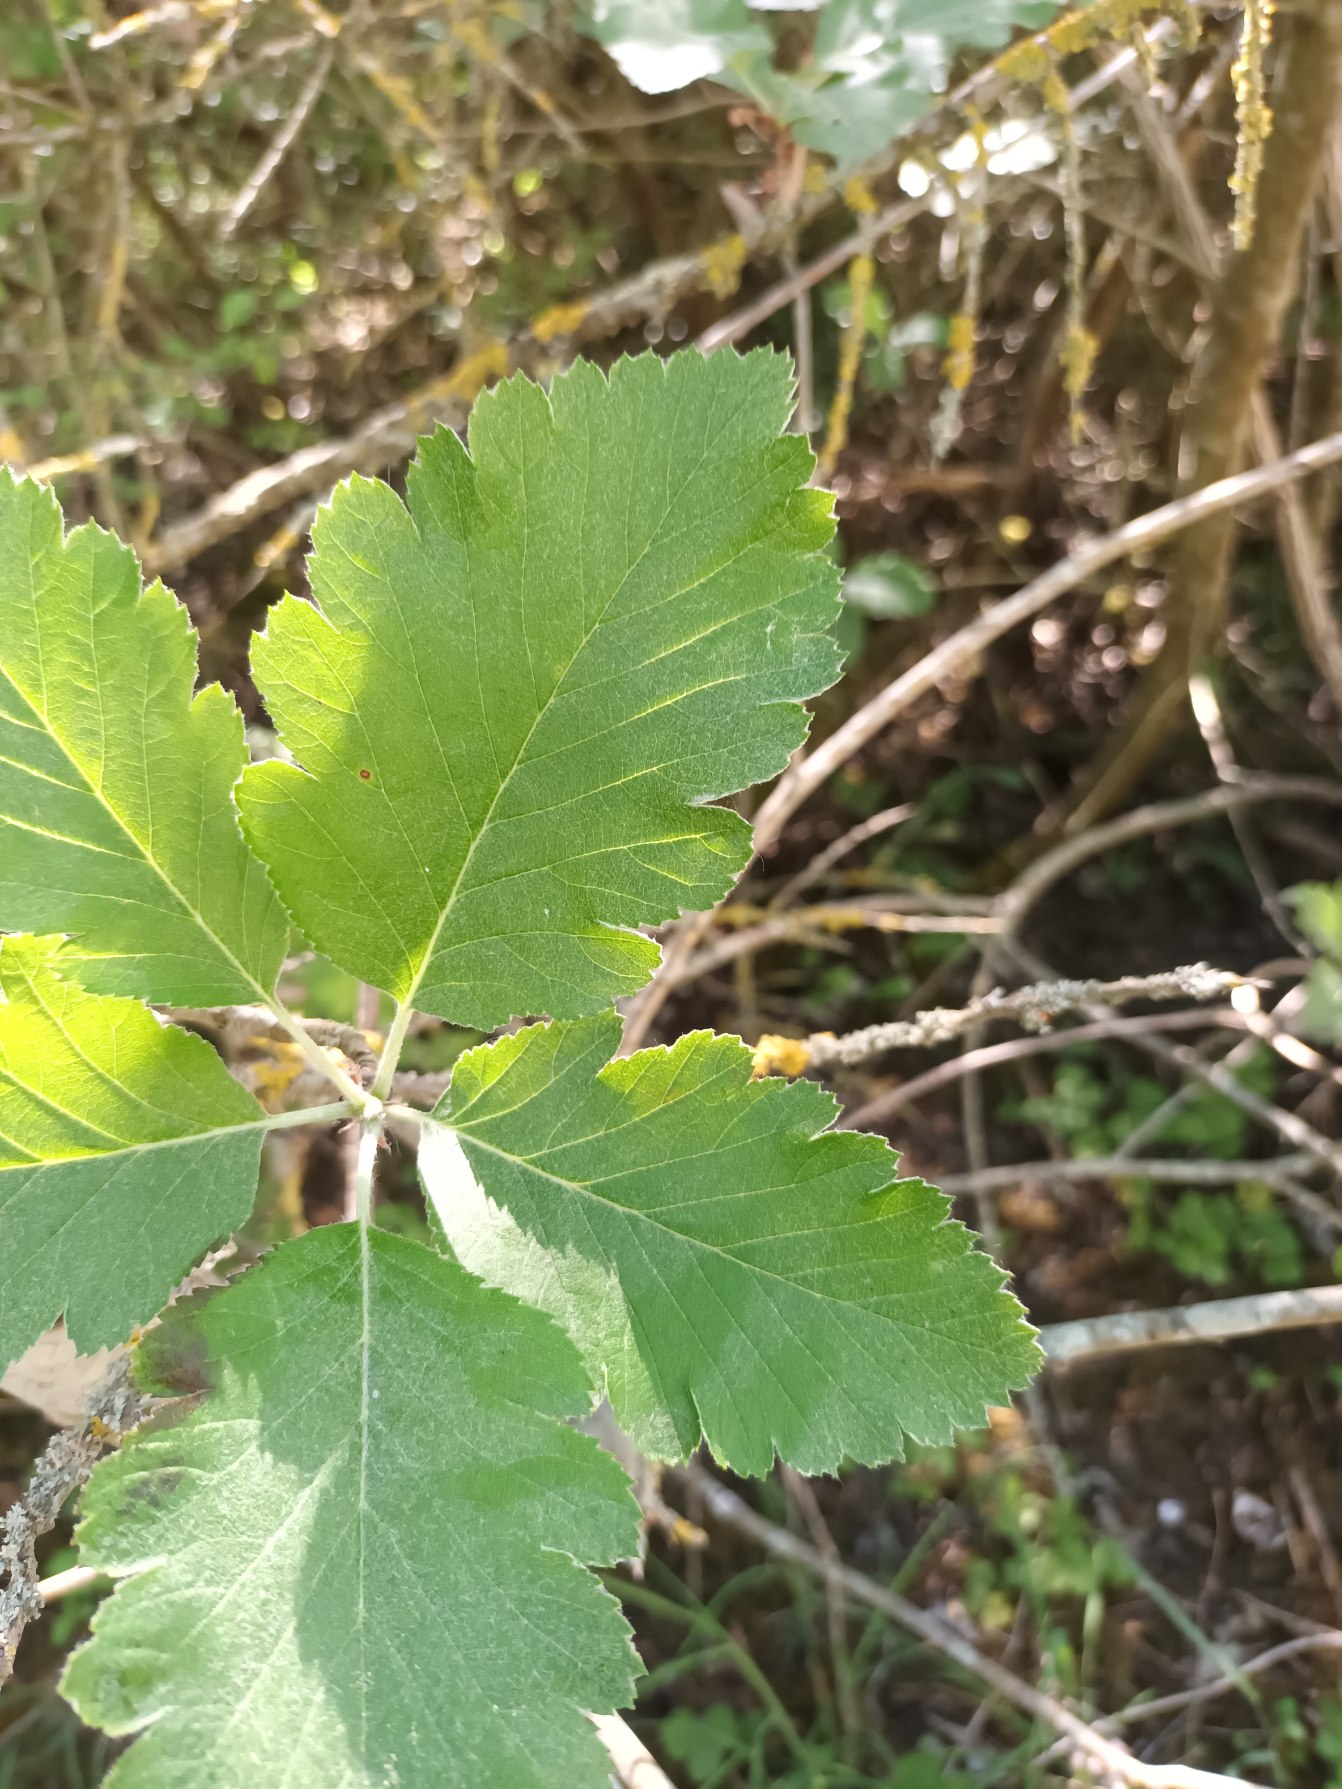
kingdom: Plantae
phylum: Tracheophyta
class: Magnoliopsida
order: Rosales
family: Rosaceae
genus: Hedlundia
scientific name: Hedlundia austriaca
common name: Østrigsk røn
